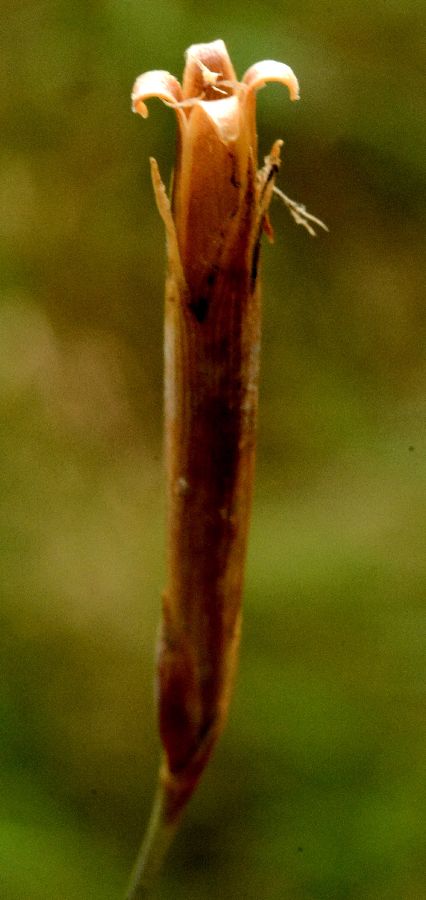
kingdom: Plantae
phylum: Tracheophyta
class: Magnoliopsida
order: Caryophyllales
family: Caryophyllaceae
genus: Dianthus
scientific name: Dianthus superbus
